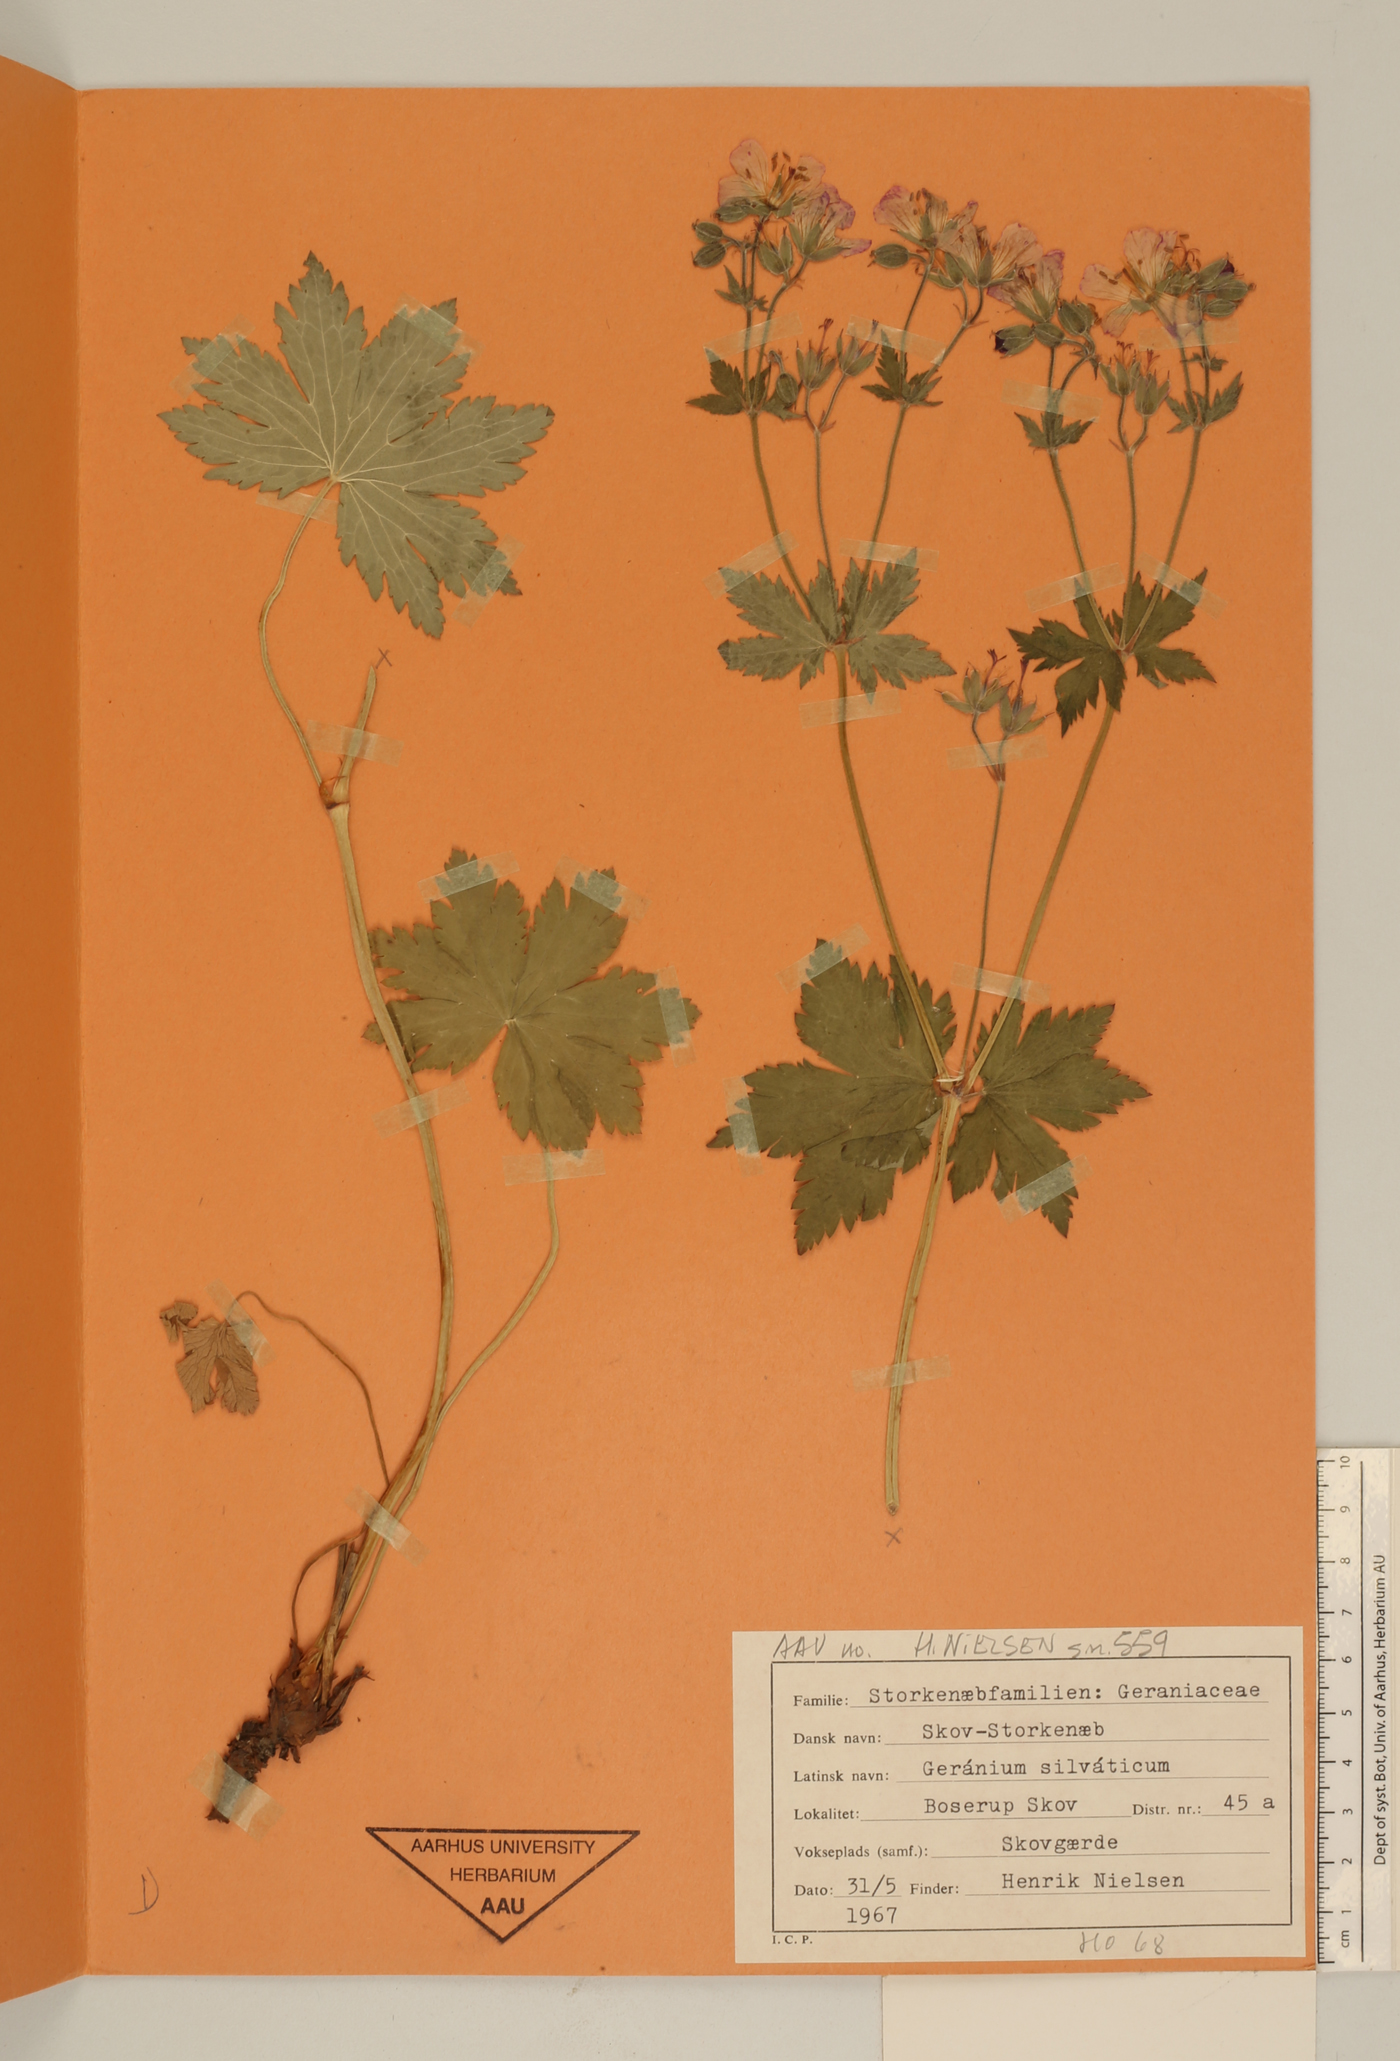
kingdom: Plantae
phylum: Tracheophyta
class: Magnoliopsida
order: Geraniales
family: Geraniaceae
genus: Geranium
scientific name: Geranium sylvaticum
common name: Wood crane's-bill
